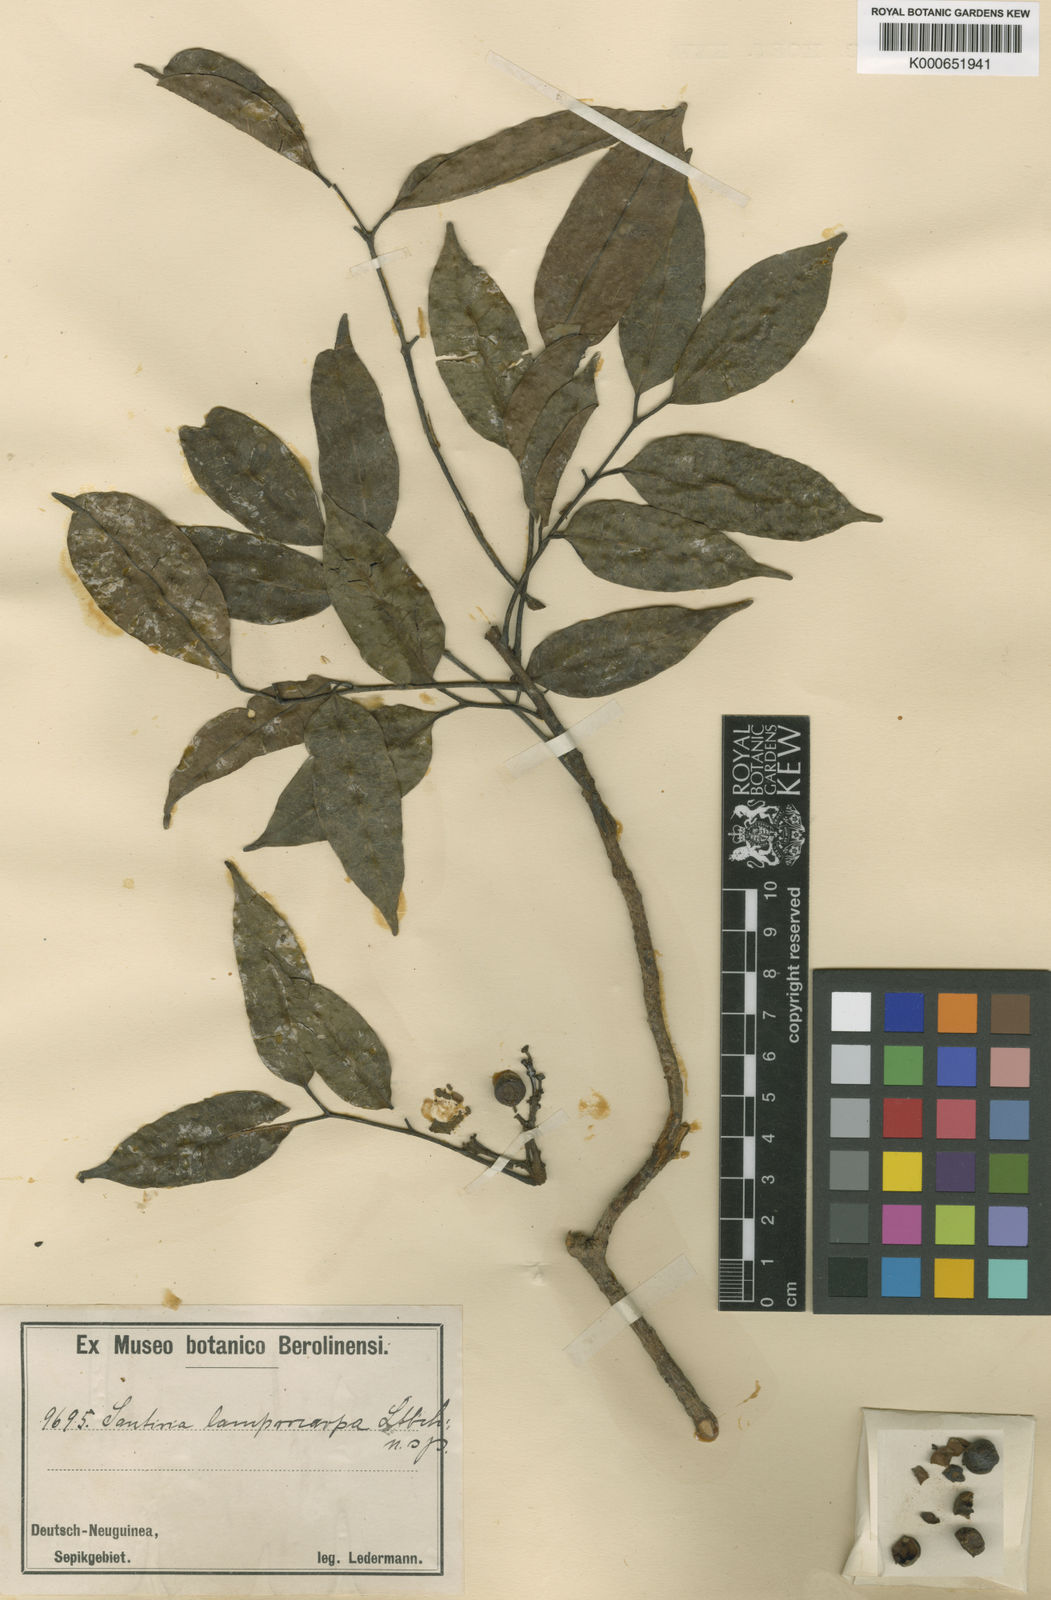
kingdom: Plantae
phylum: Tracheophyta
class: Magnoliopsida
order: Sapindales
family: Burseraceae
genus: Santiria
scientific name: Santiria rubiginosa
